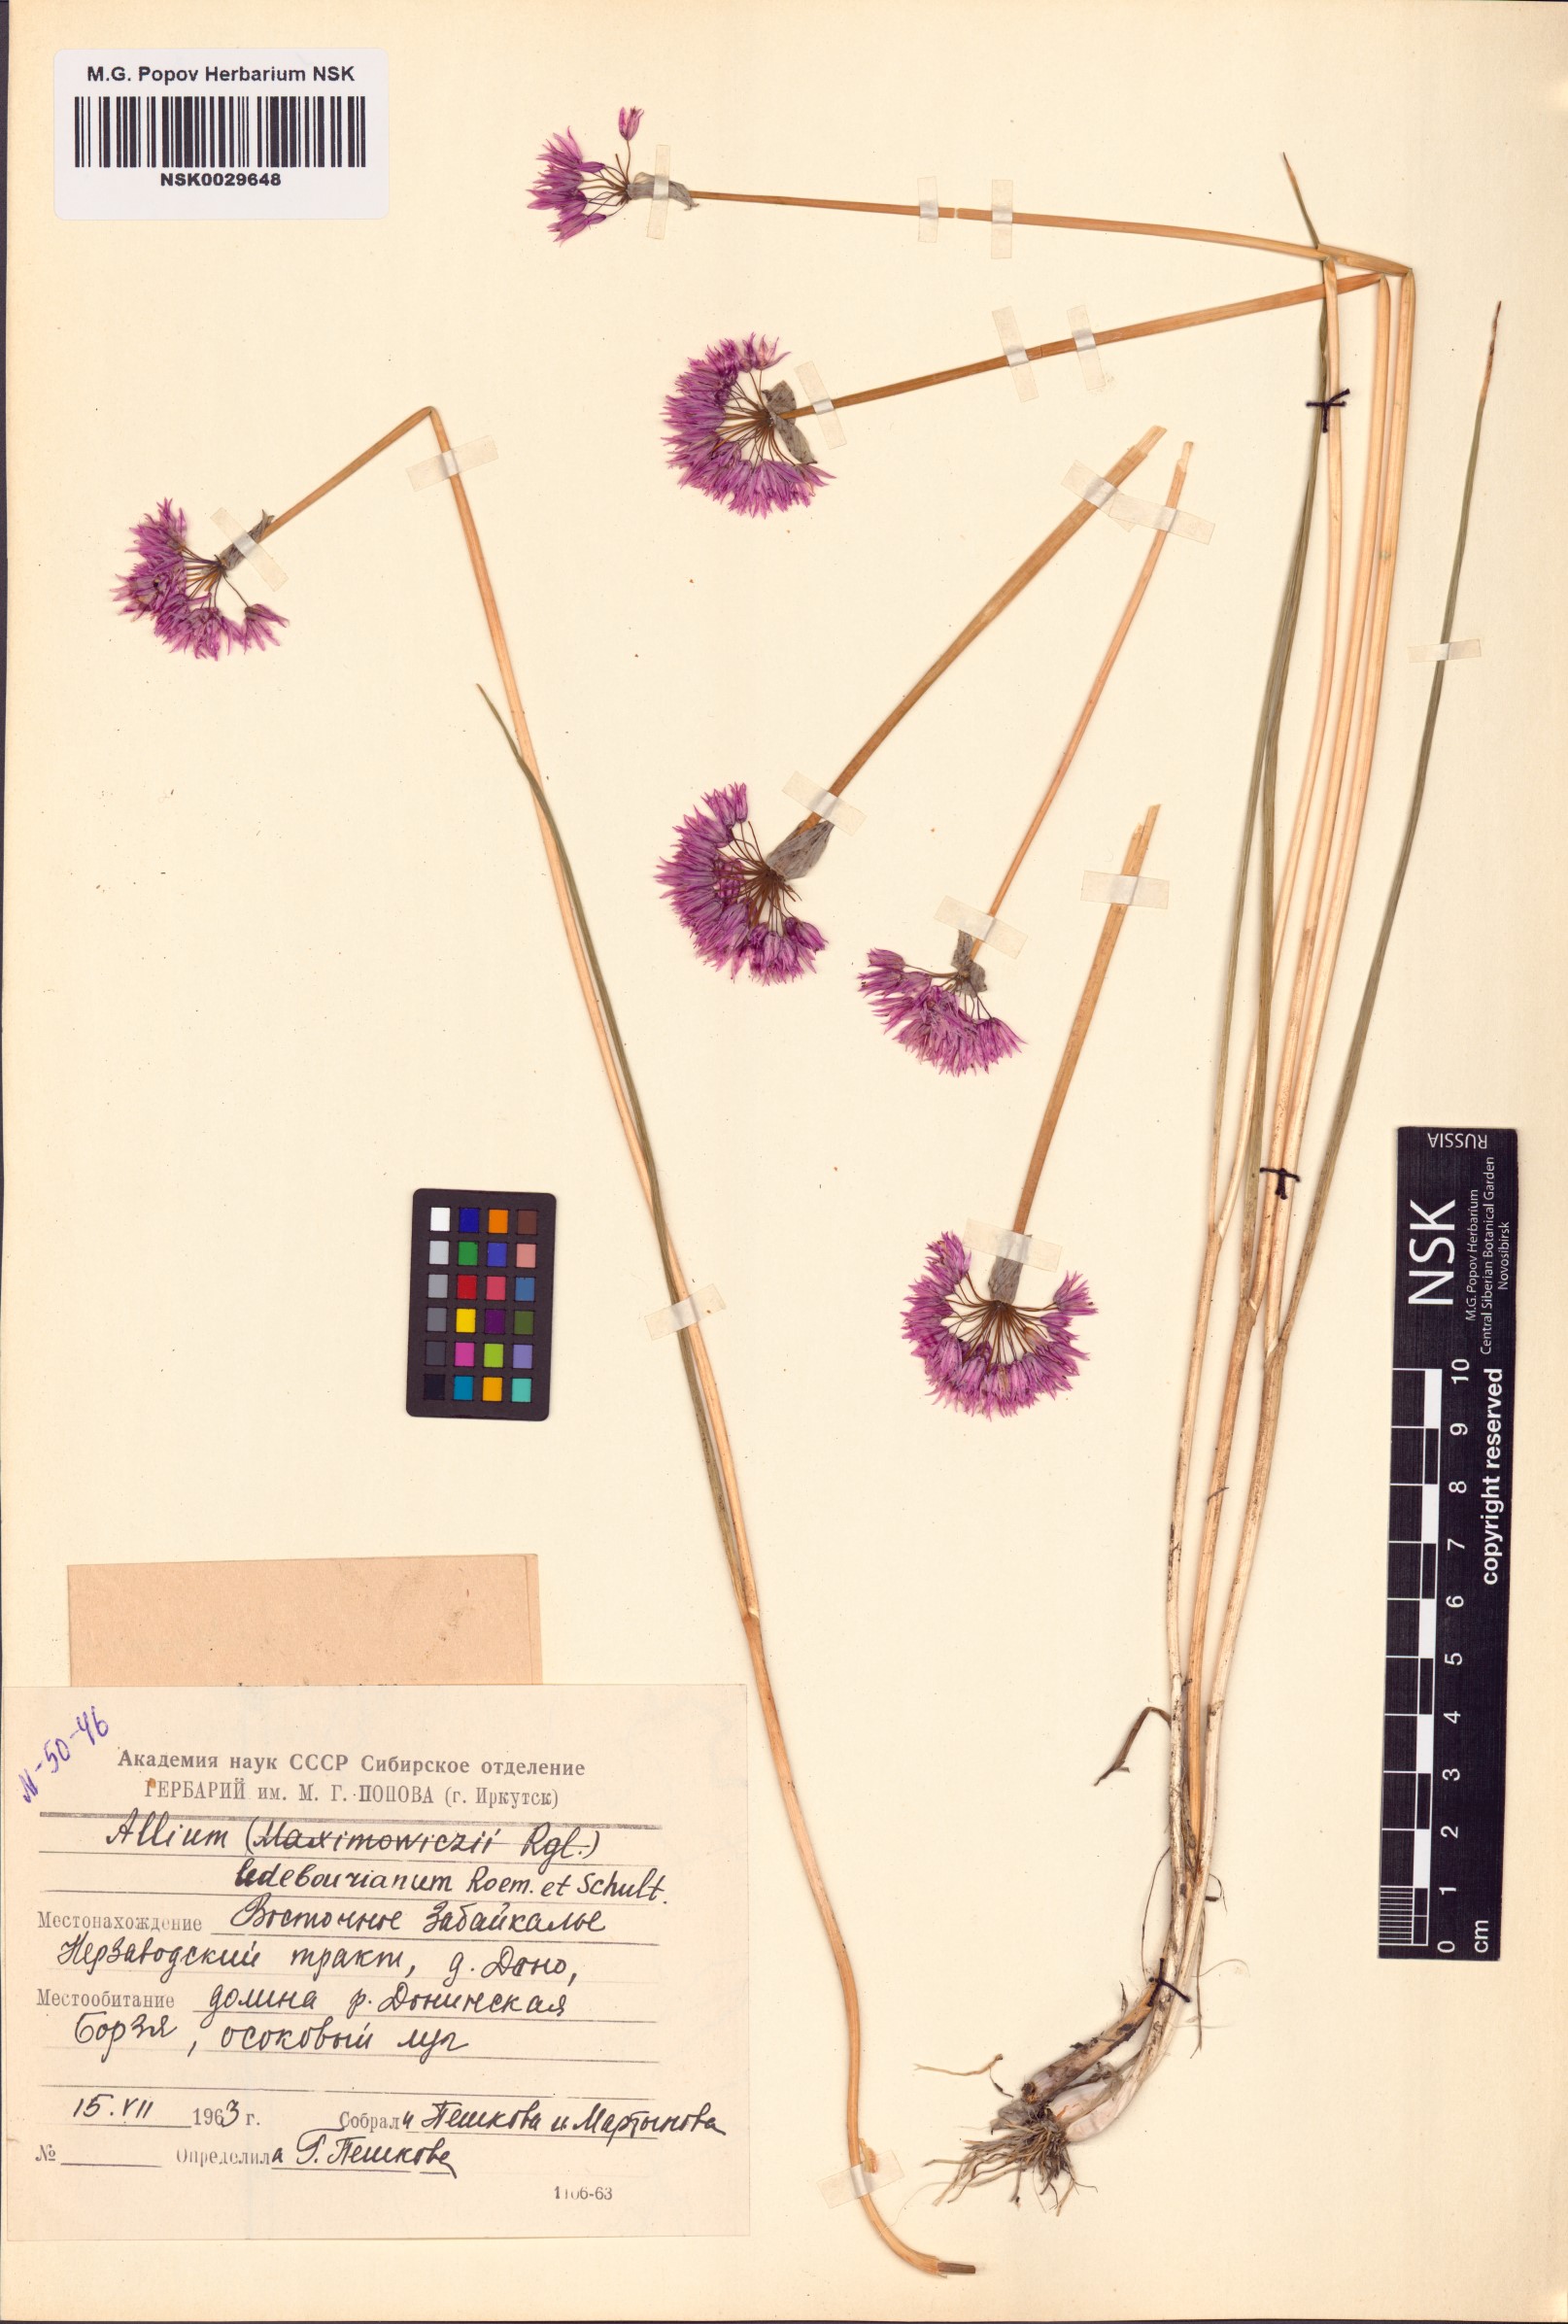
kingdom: Plantae
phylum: Tracheophyta
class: Liliopsida
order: Asparagales
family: Amaryllidaceae
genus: Allium
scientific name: Allium ledebourianum
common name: Ledebour chive
